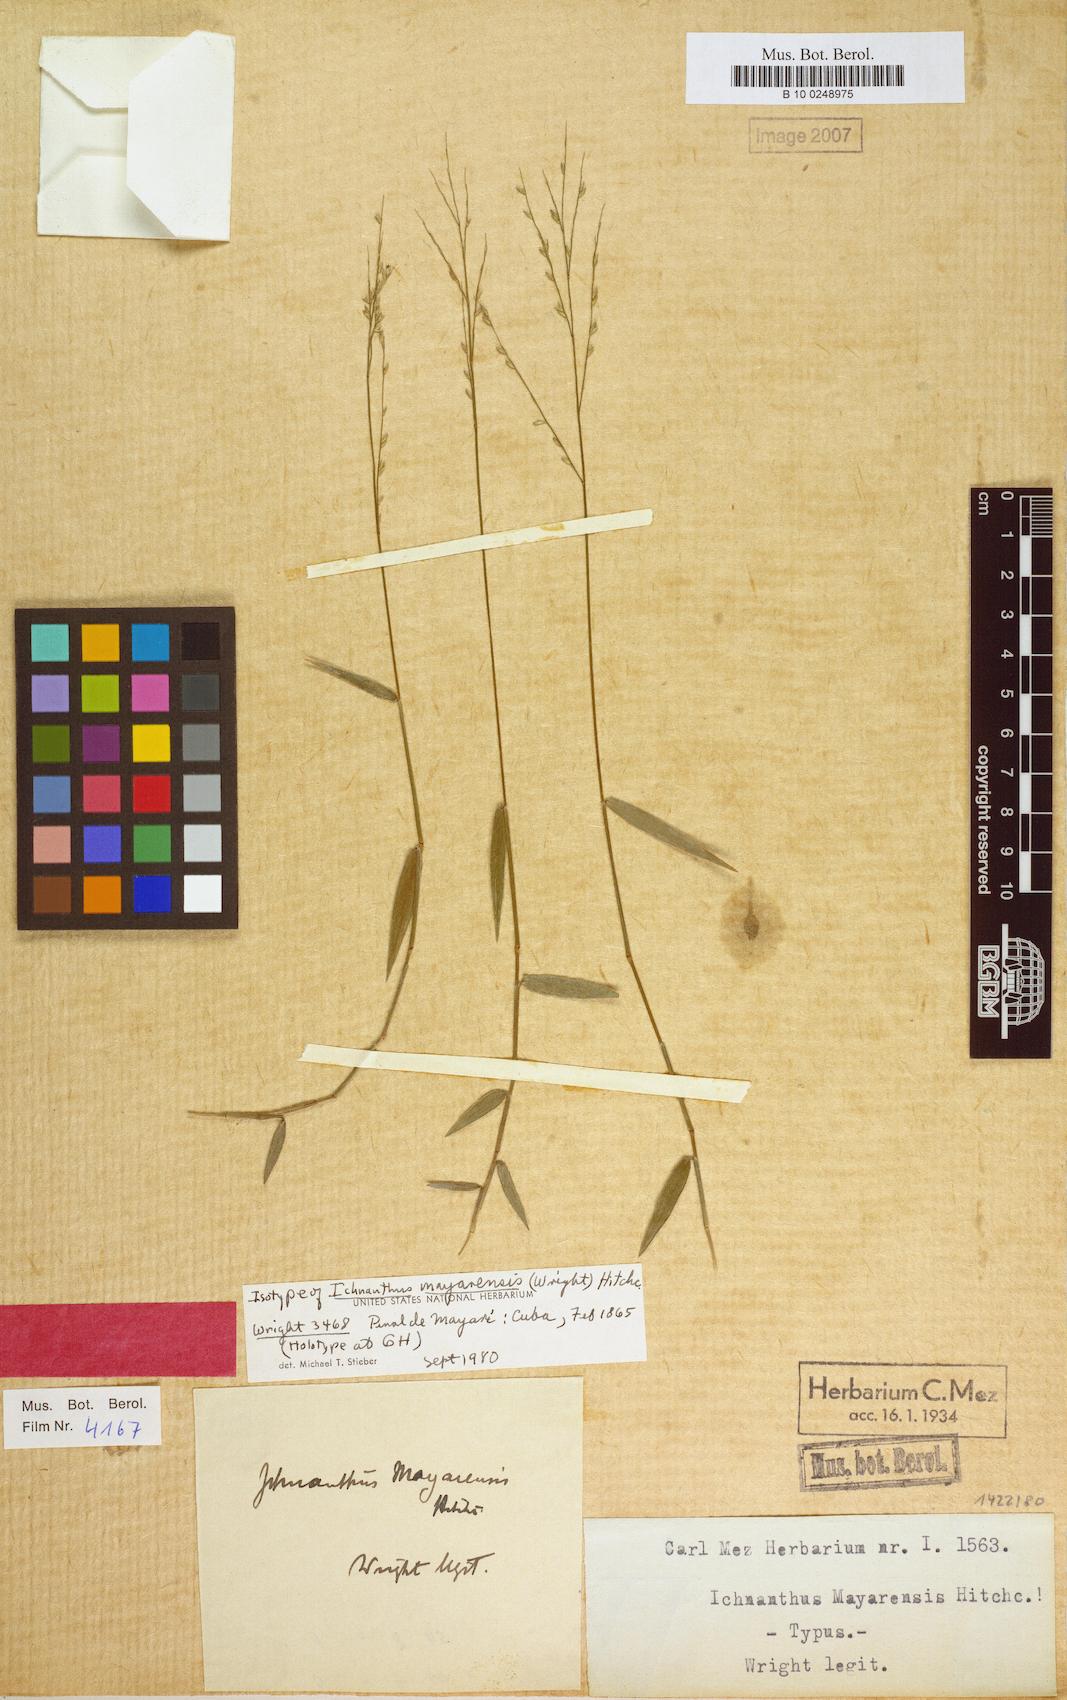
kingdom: Plantae
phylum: Tracheophyta
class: Liliopsida
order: Poales
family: Poaceae
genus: Oedochloa
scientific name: Oedochloa mayarensis
